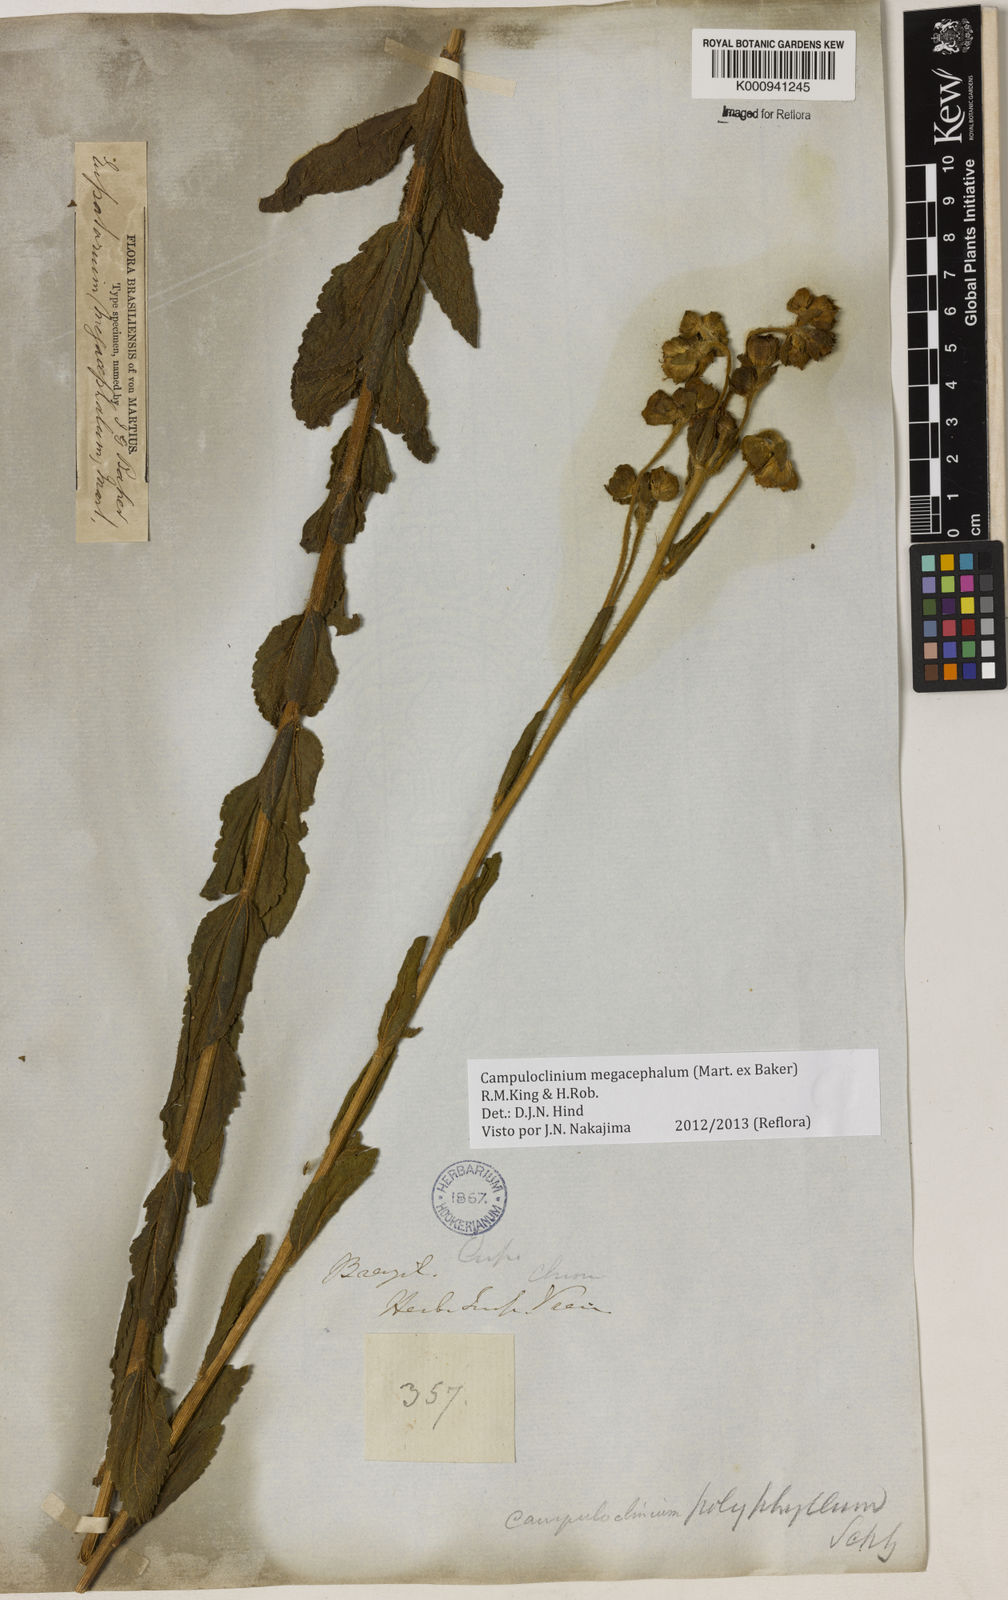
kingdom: Plantae
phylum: Tracheophyta
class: Magnoliopsida
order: Asterales
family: Asteraceae
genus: Campuloclinium
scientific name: Campuloclinium megacephalum
